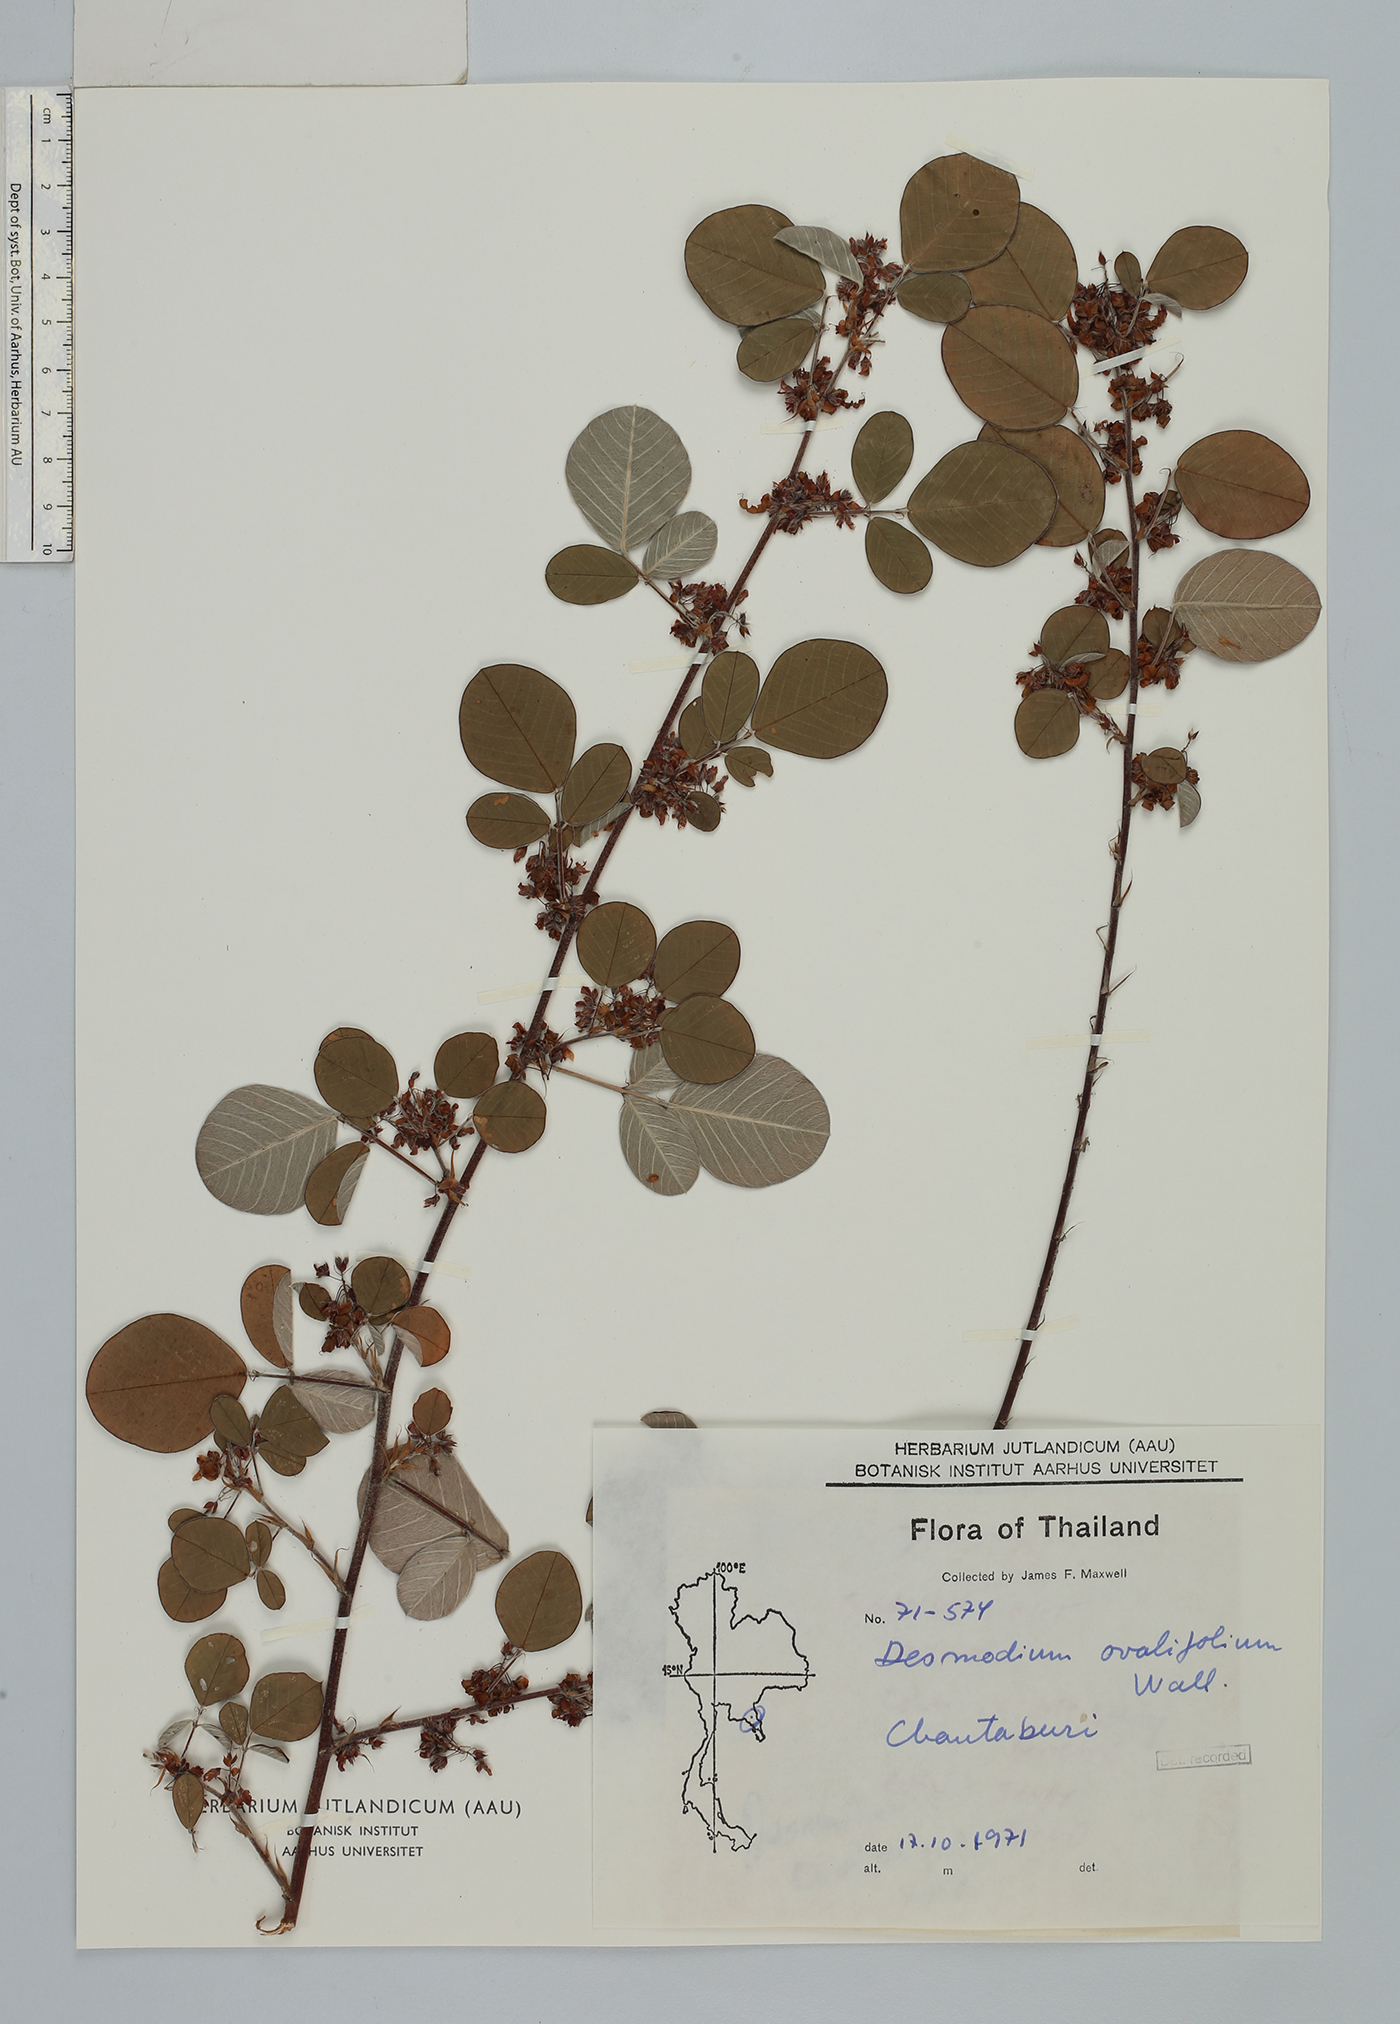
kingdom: Plantae
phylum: Tracheophyta
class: Magnoliopsida
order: Fabales
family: Fabaceae
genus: Grona
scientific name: Grona styracifolia
